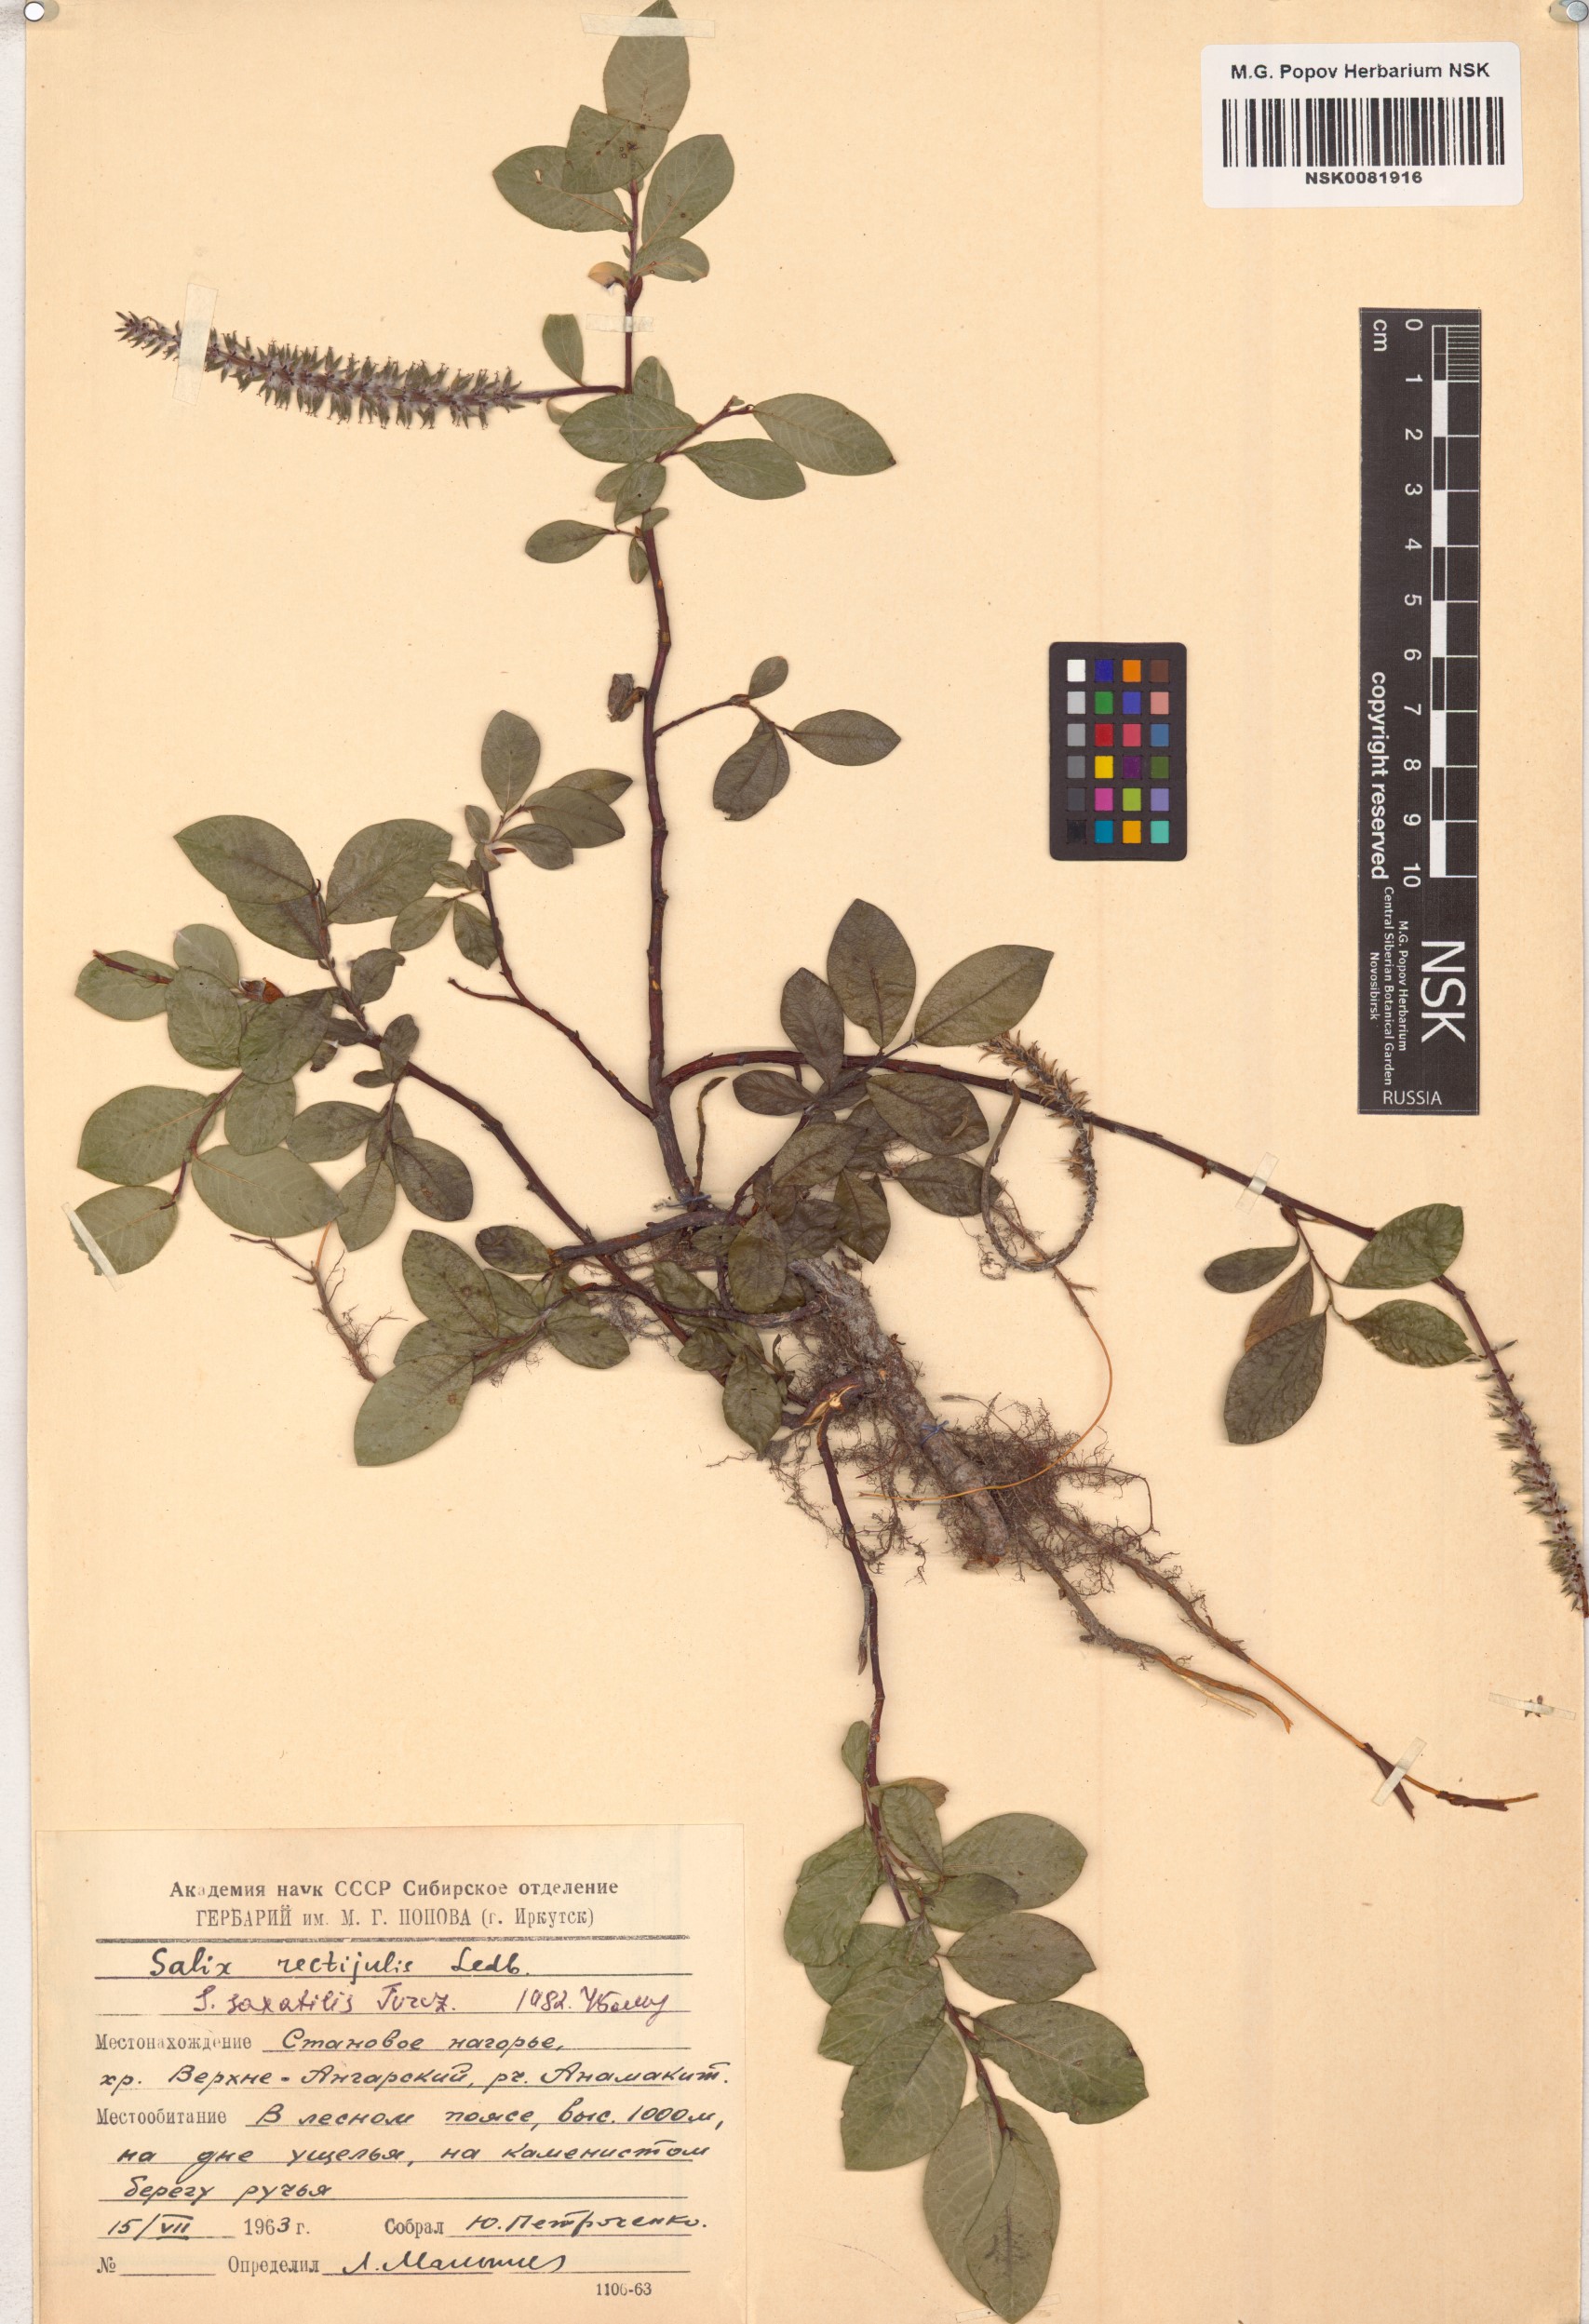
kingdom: Plantae
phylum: Tracheophyta
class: Magnoliopsida
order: Malpighiales
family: Salicaceae
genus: Salix
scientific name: Salix saxatilis
